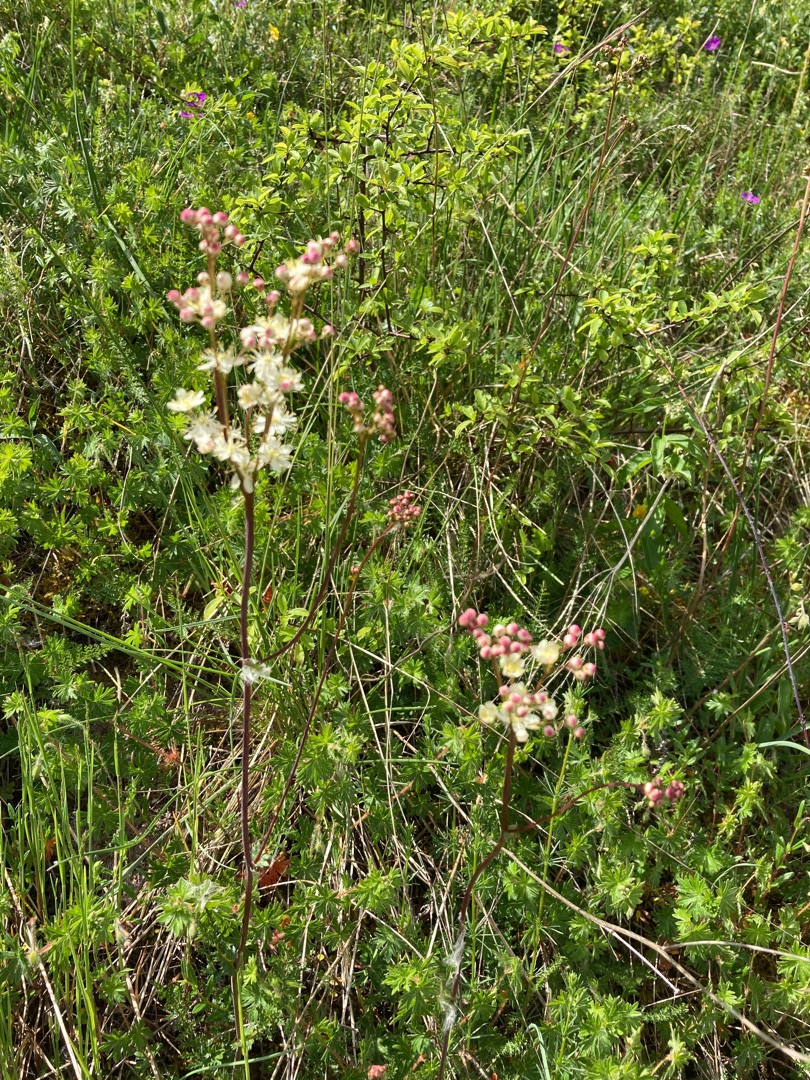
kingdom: Plantae
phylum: Tracheophyta
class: Magnoliopsida
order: Rosales
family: Rosaceae
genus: Filipendula
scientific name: Filipendula vulgaris
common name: Knoldet mjødurt
